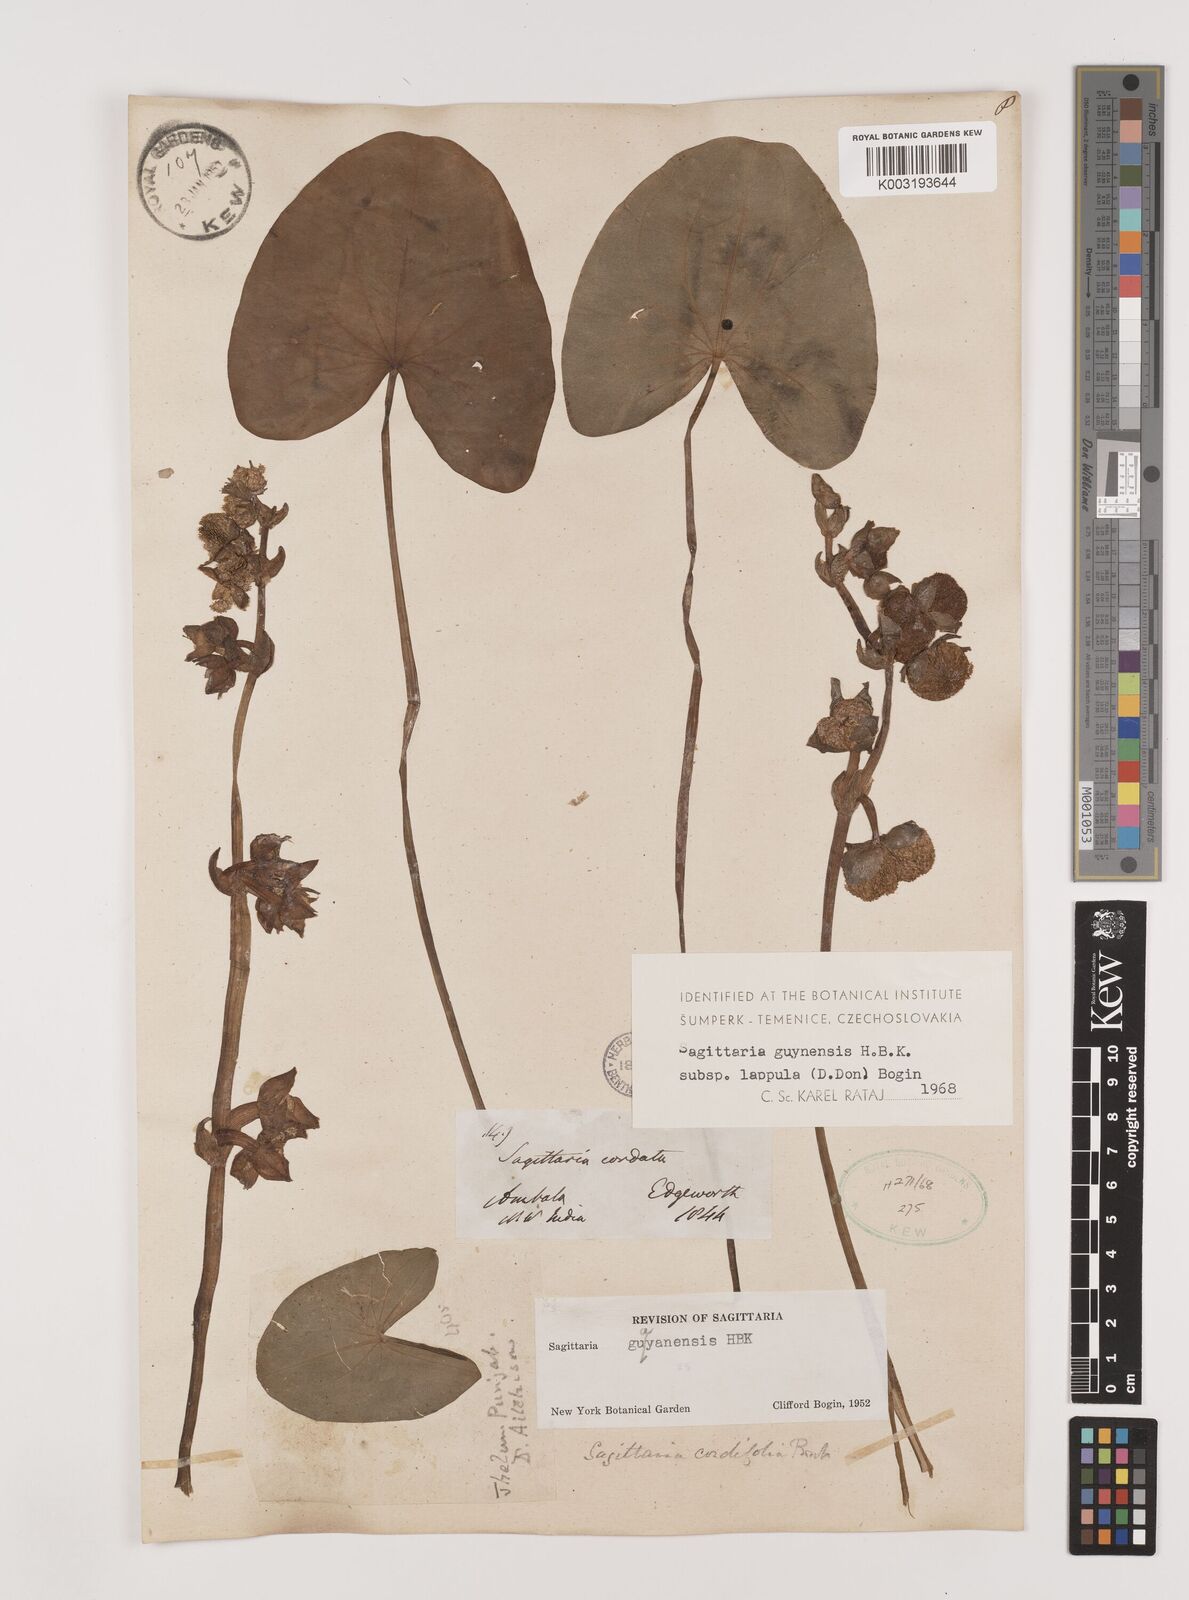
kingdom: Plantae
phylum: Tracheophyta
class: Liliopsida
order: Alismatales
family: Alismataceae
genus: Sagittaria
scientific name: Sagittaria guayanensis
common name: Guyanese arrowhead
